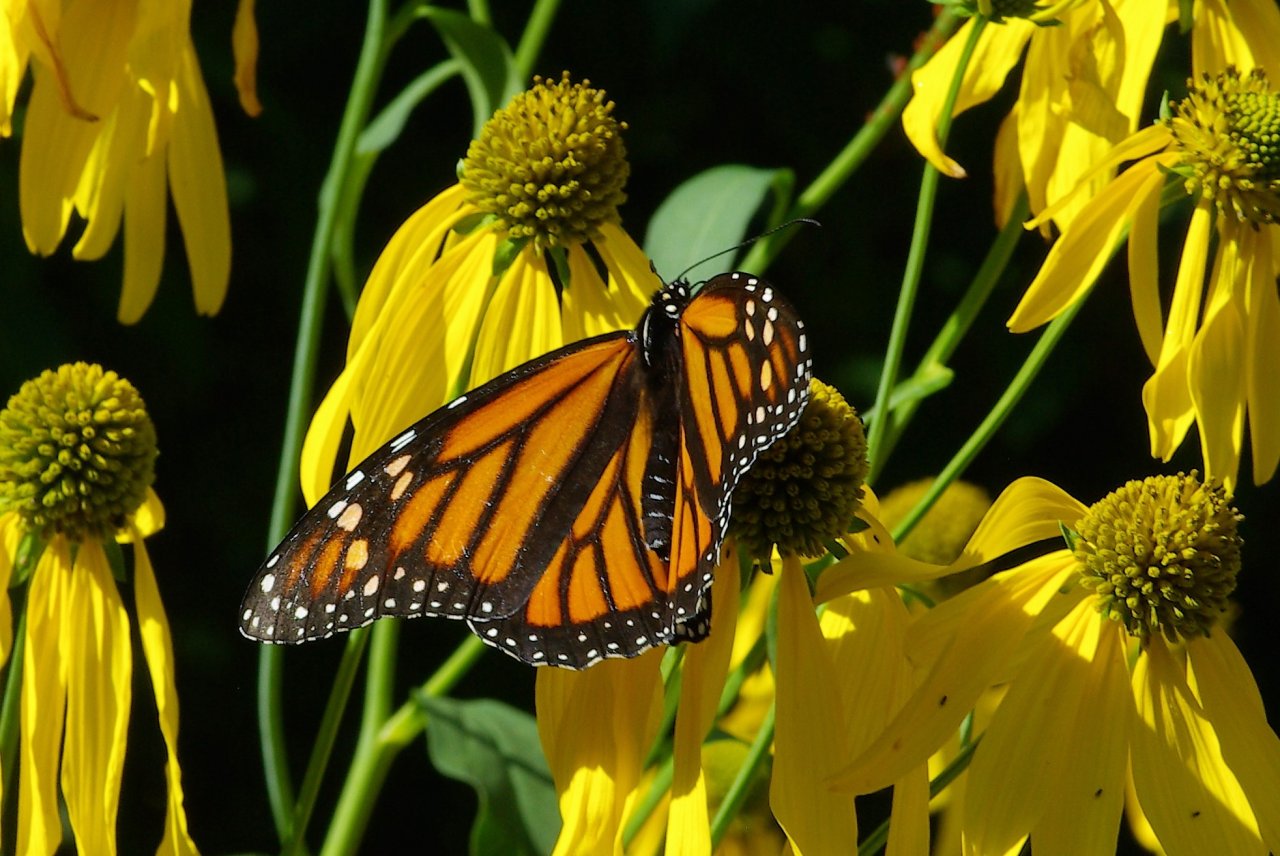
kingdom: Animalia
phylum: Arthropoda
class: Insecta
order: Lepidoptera
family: Nymphalidae
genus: Danaus
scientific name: Danaus plexippus
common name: Monarch
